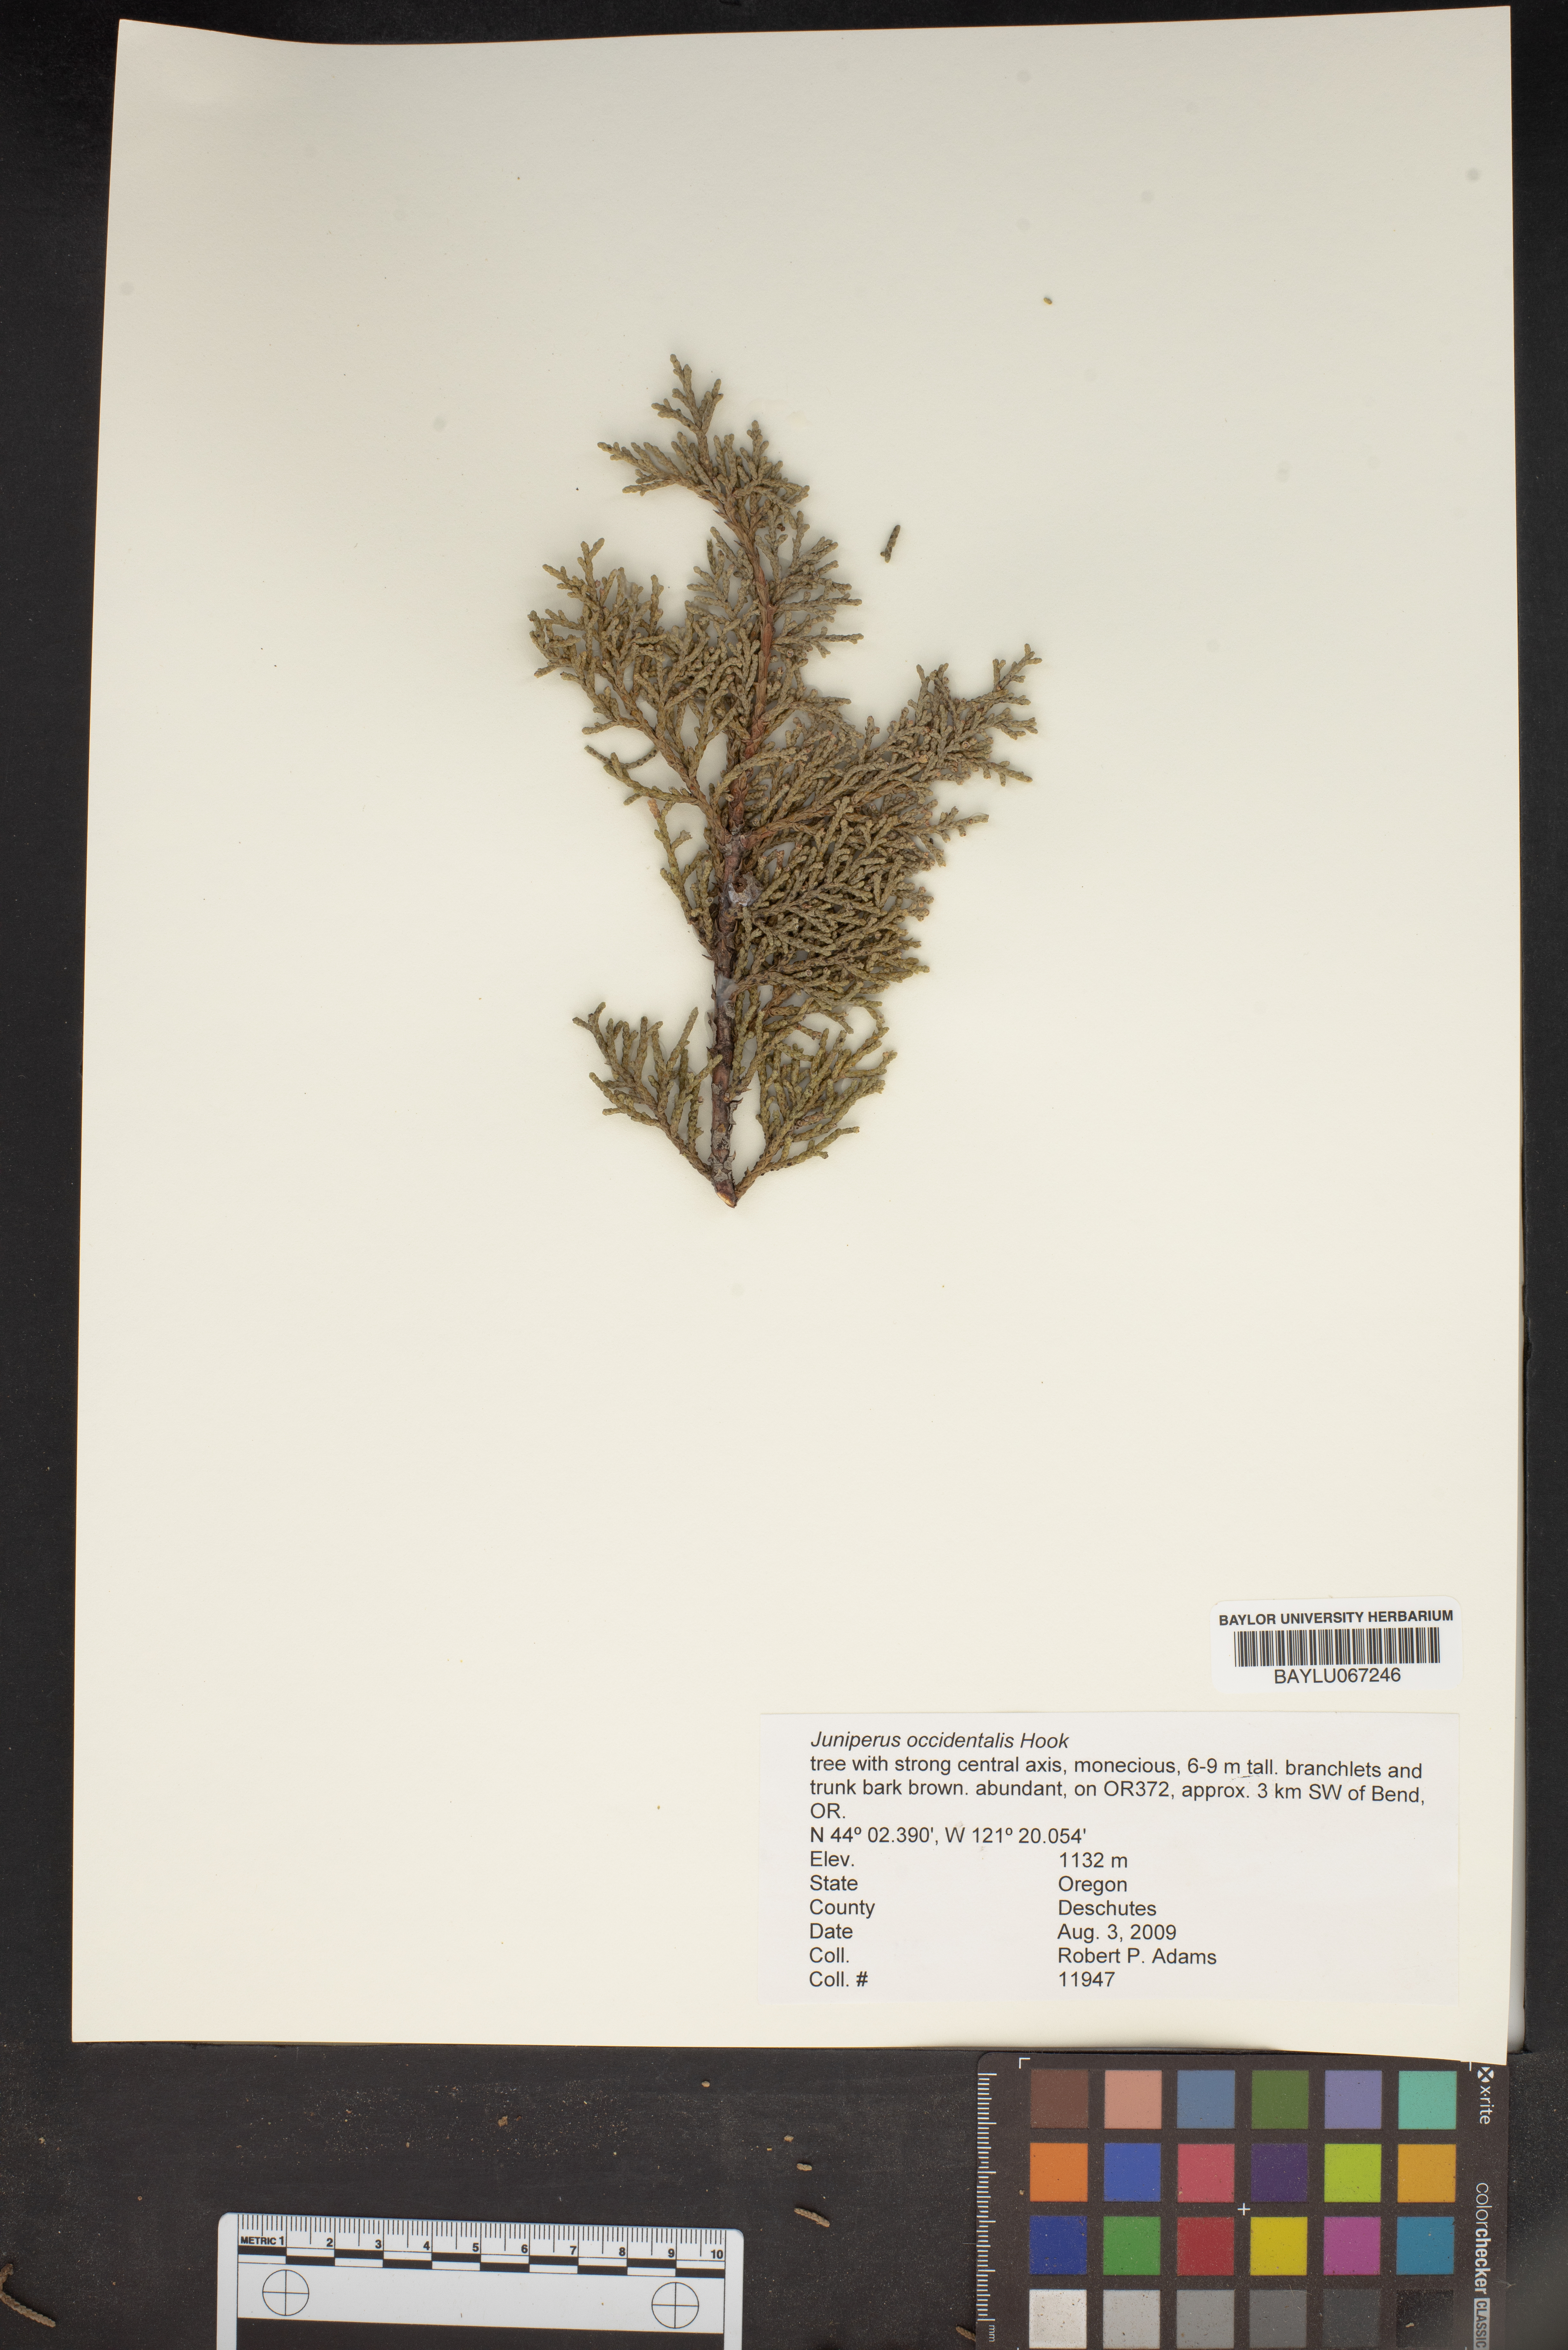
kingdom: Plantae
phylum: Tracheophyta
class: Pinopsida
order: Pinales
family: Cupressaceae
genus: Juniperus
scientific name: Juniperus occidentalis
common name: Western juniper
